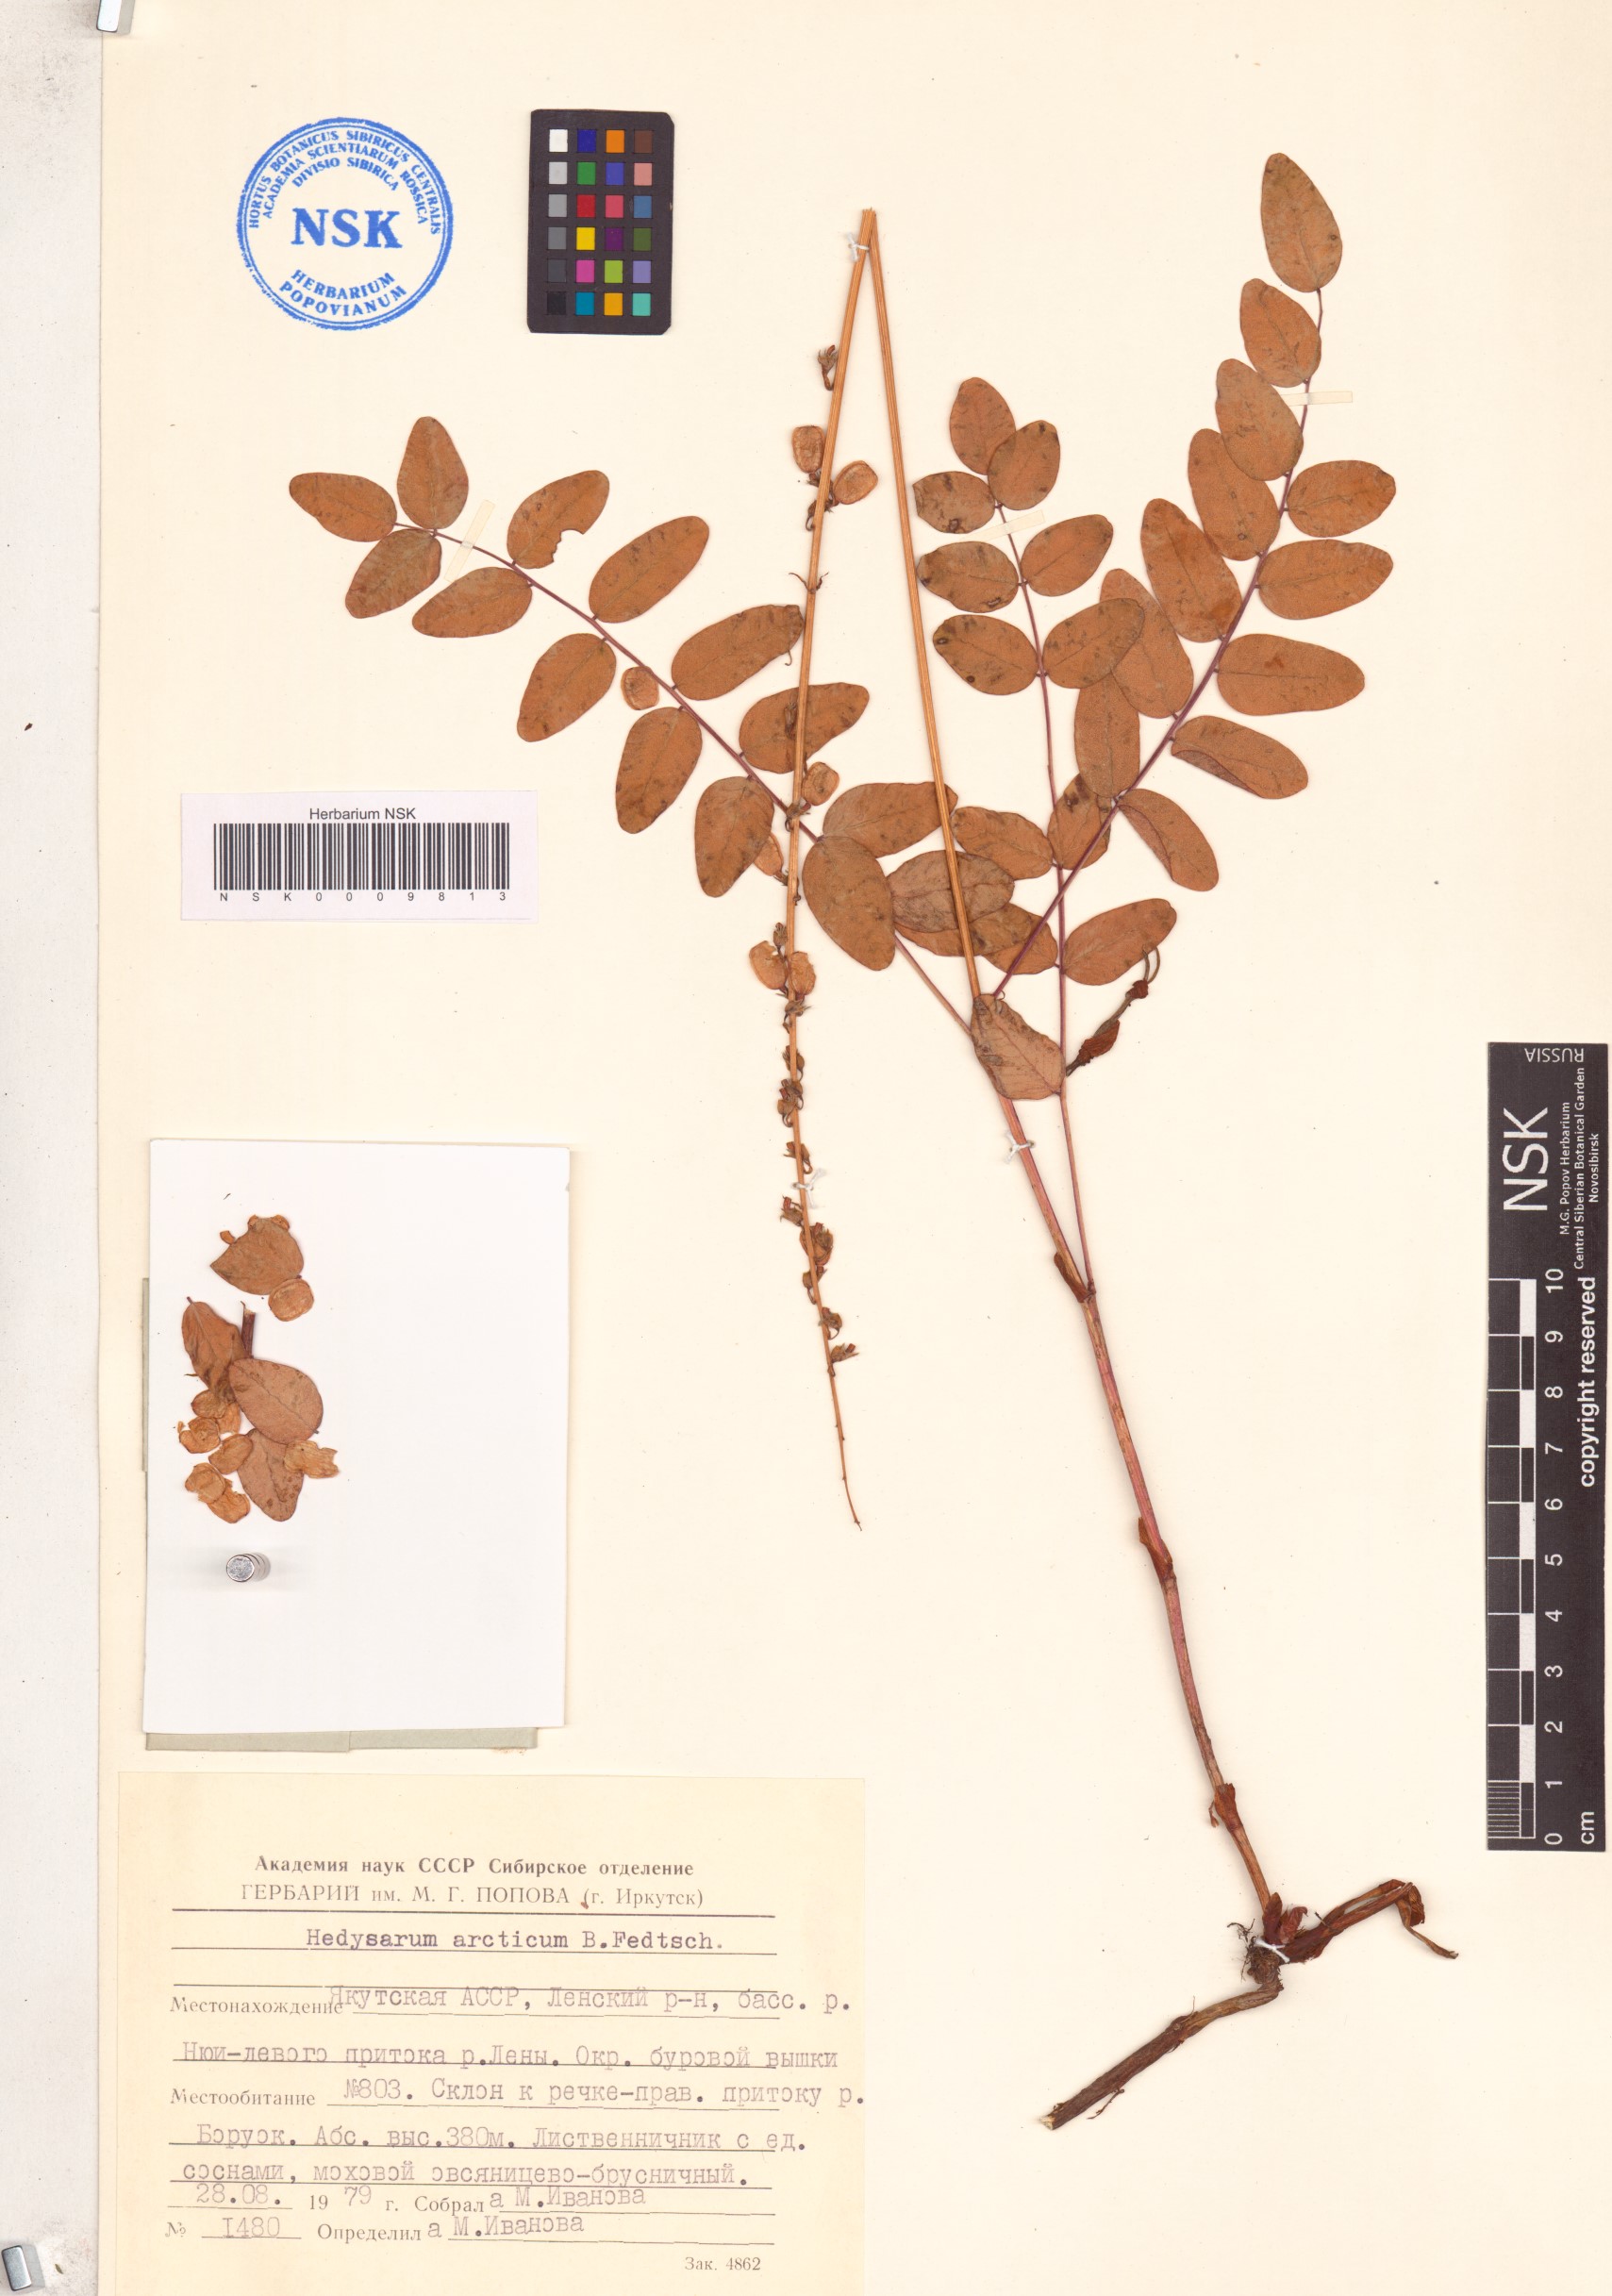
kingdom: Plantae
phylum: Tracheophyta
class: Magnoliopsida
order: Fabales
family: Fabaceae
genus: Hedysarum
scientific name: Hedysarum hedysaroides
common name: Alpine french-honeysuckle
